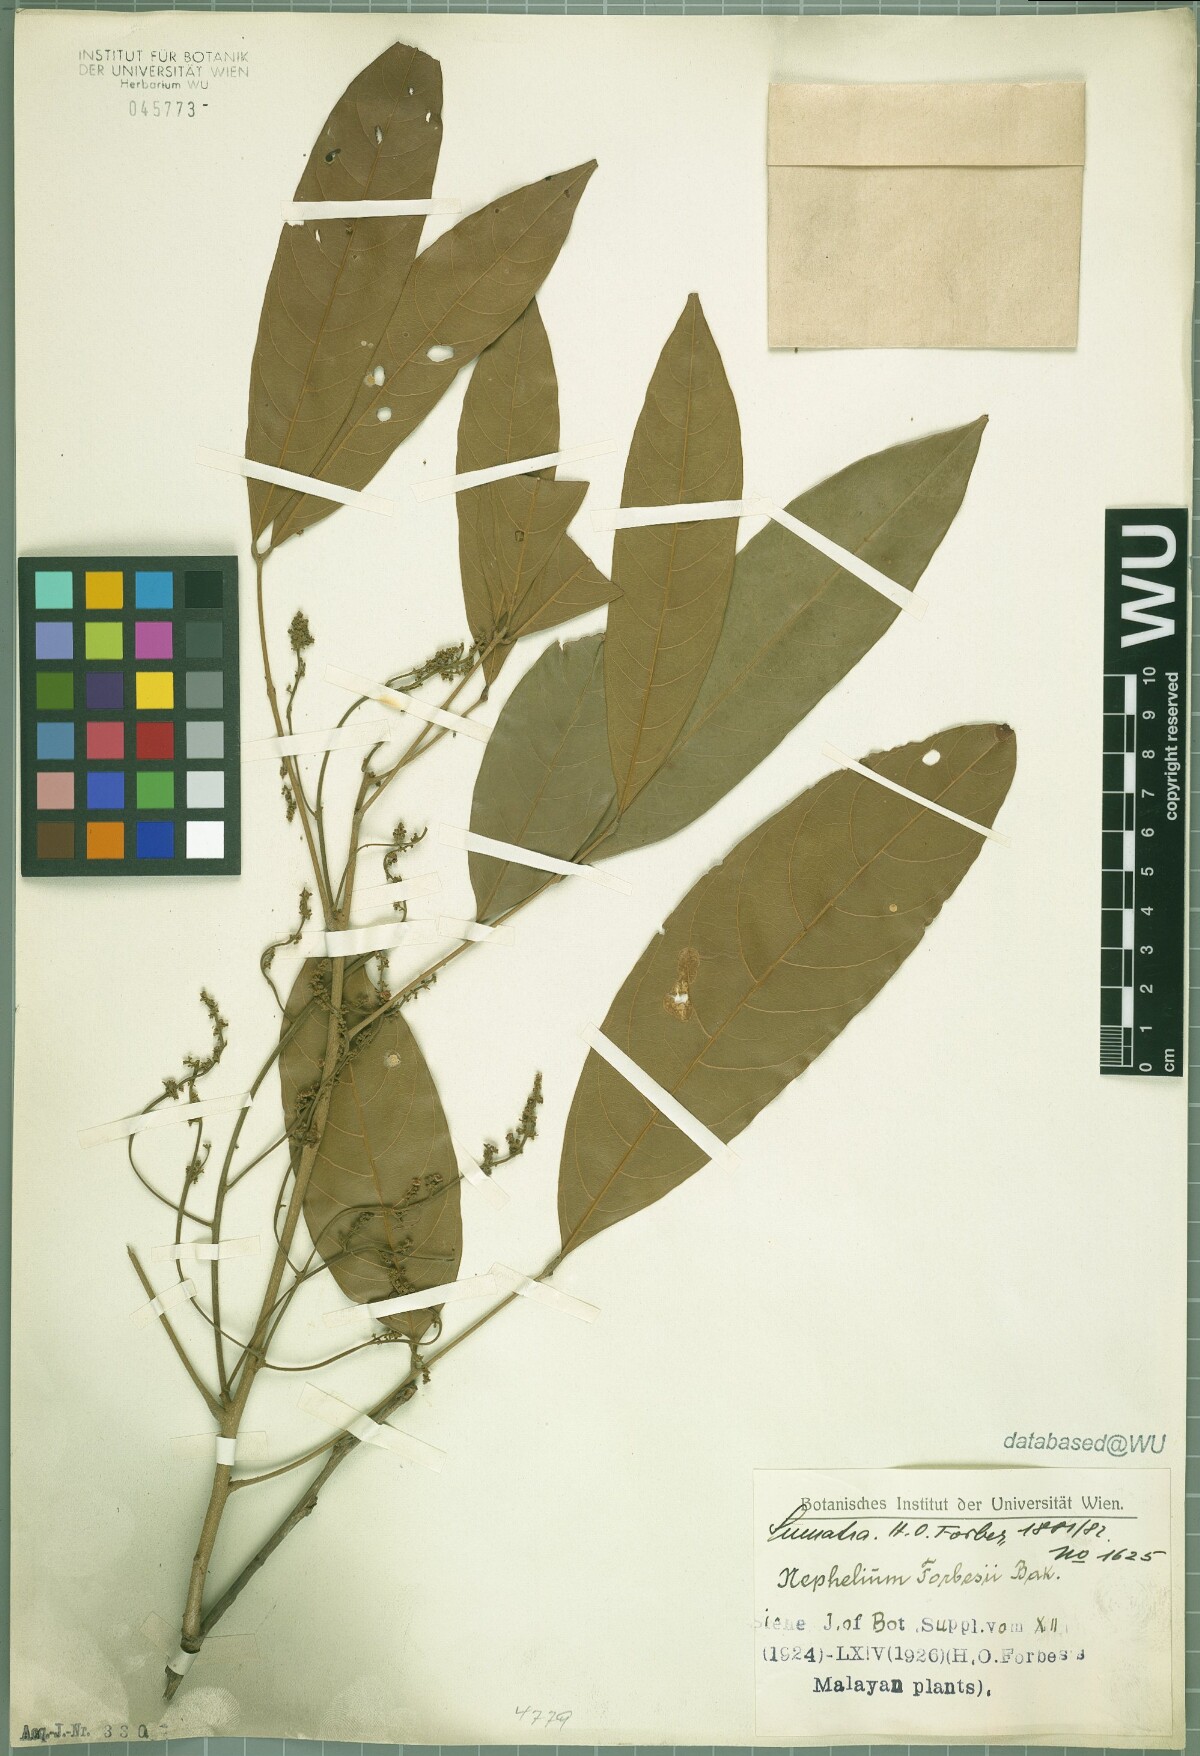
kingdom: Plantae
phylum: Tracheophyta
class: Magnoliopsida
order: Sapindales
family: Sapindaceae
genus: Paranephelium
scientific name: Paranephelium xestophyllum
